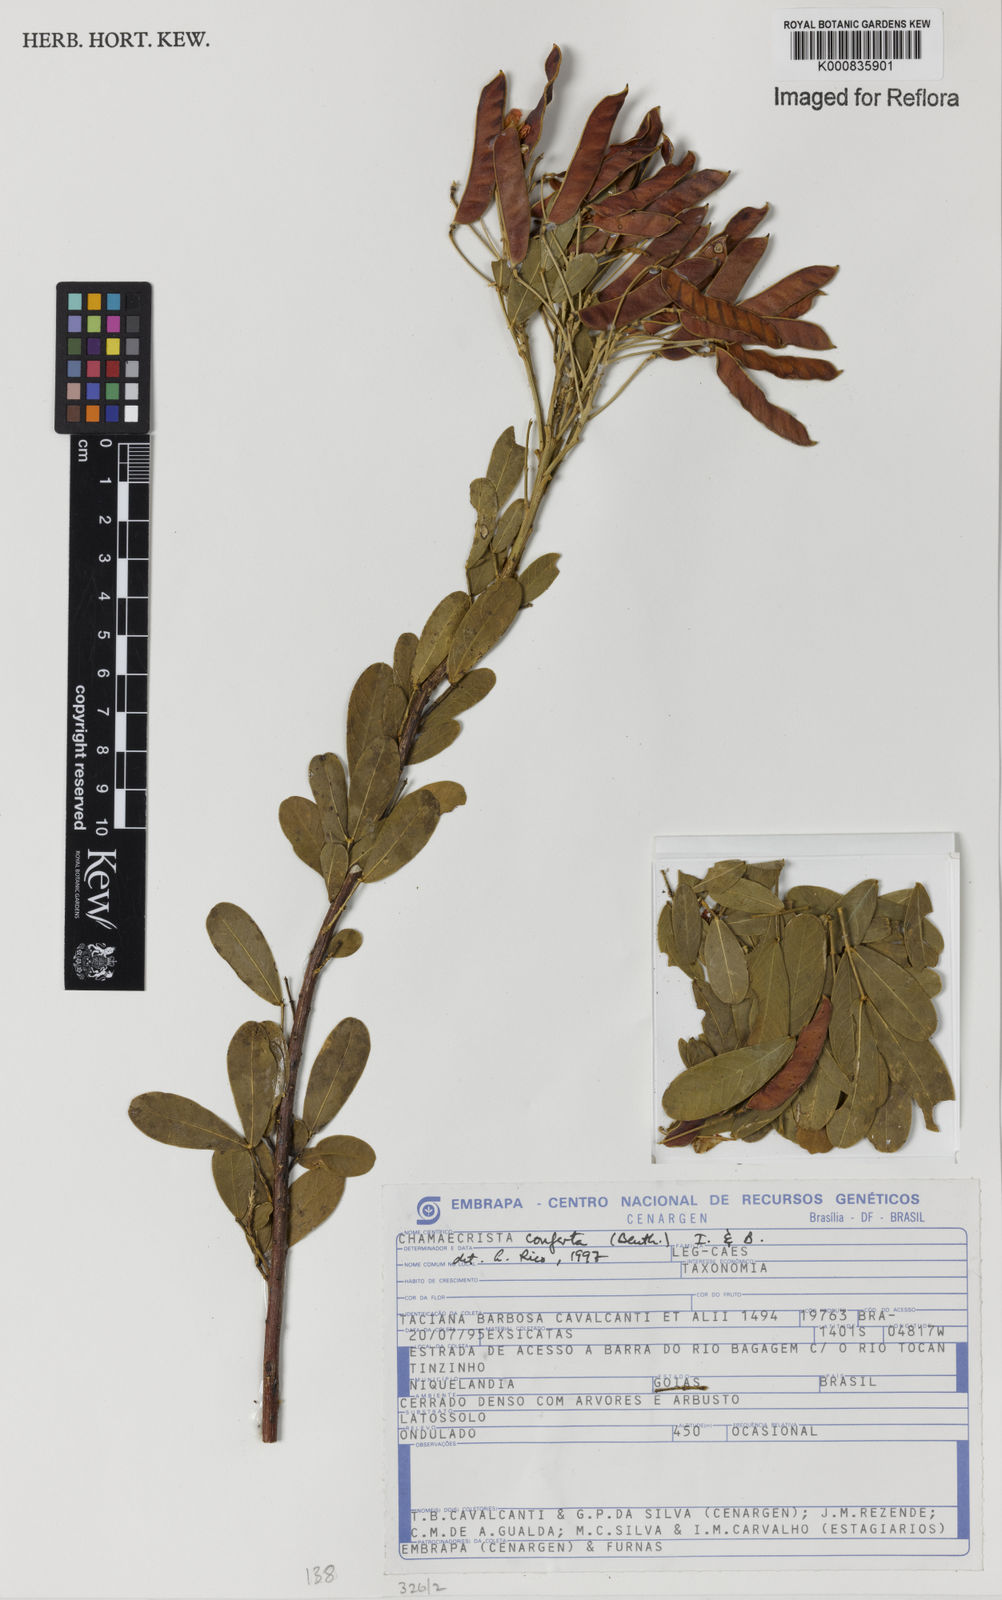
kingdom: Plantae
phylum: Tracheophyta
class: Magnoliopsida
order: Fabales
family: Fabaceae
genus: Chamaecrista
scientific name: Chamaecrista conferta
